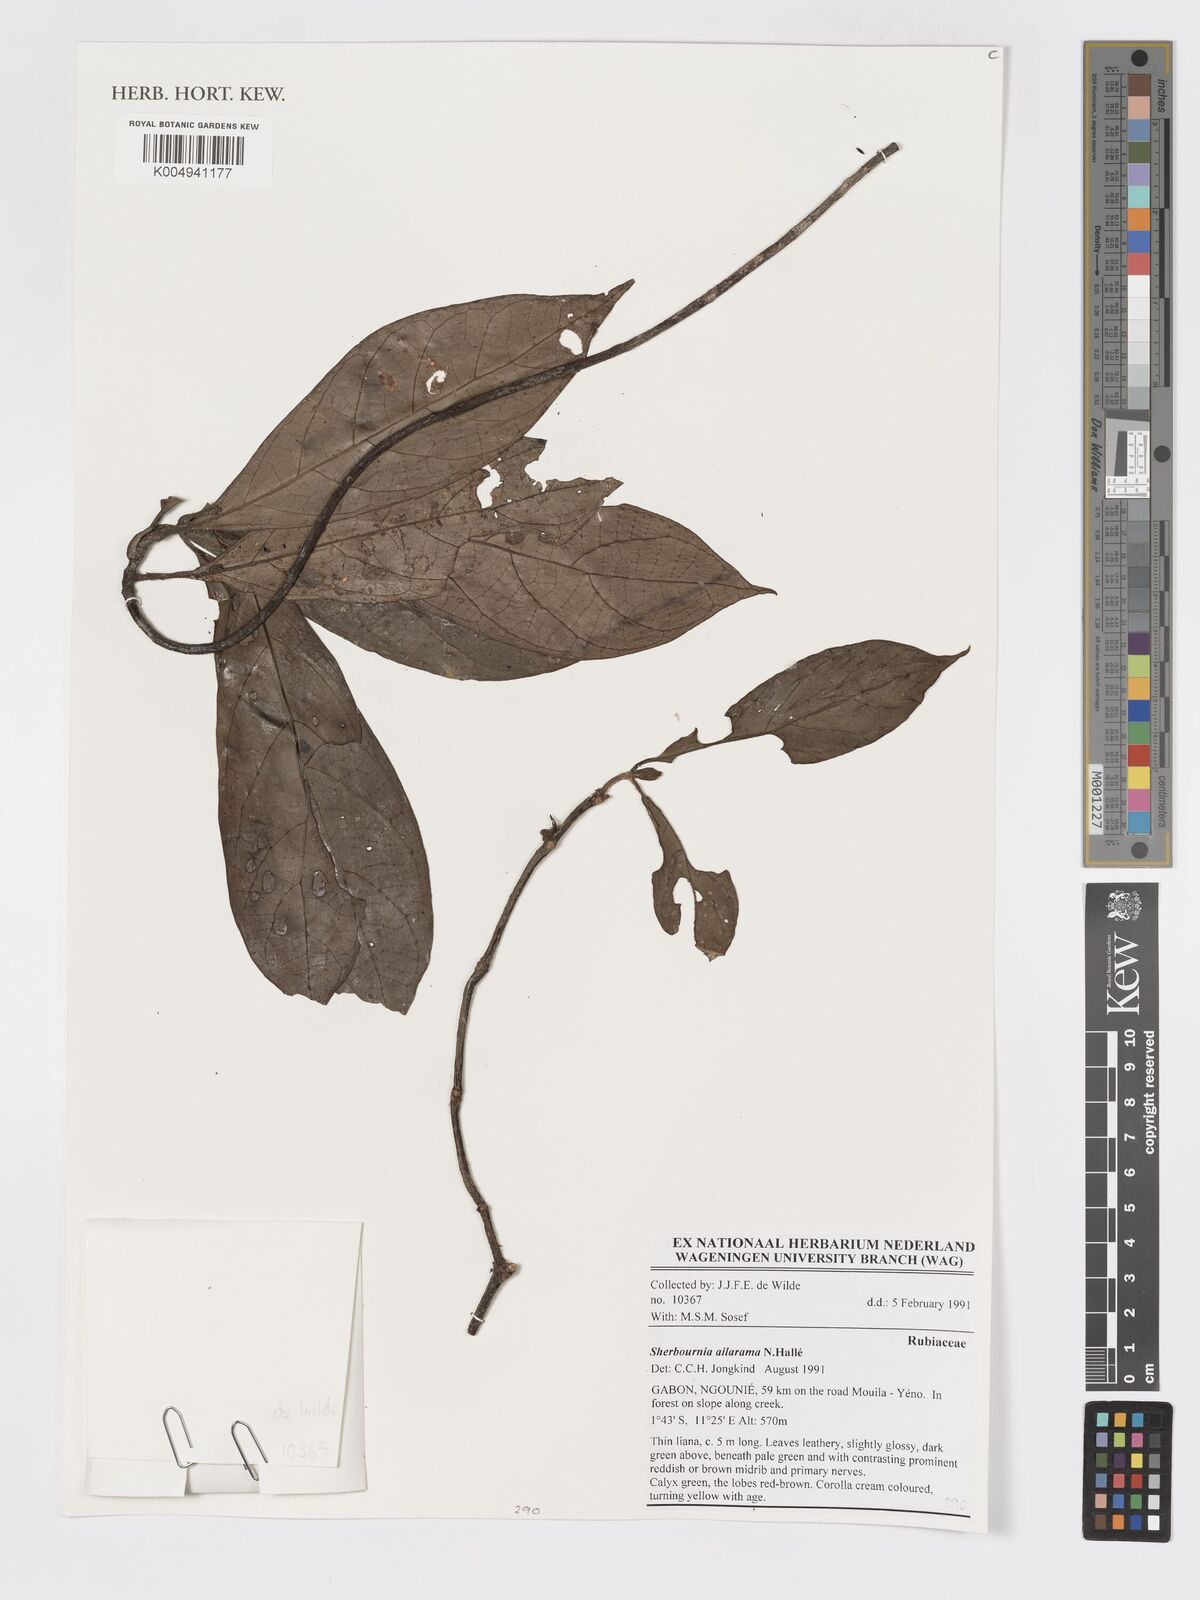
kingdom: Plantae
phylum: Tracheophyta
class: Magnoliopsida
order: Gentianales
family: Rubiaceae
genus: Sherbournia
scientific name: Sherbournia ailarama
